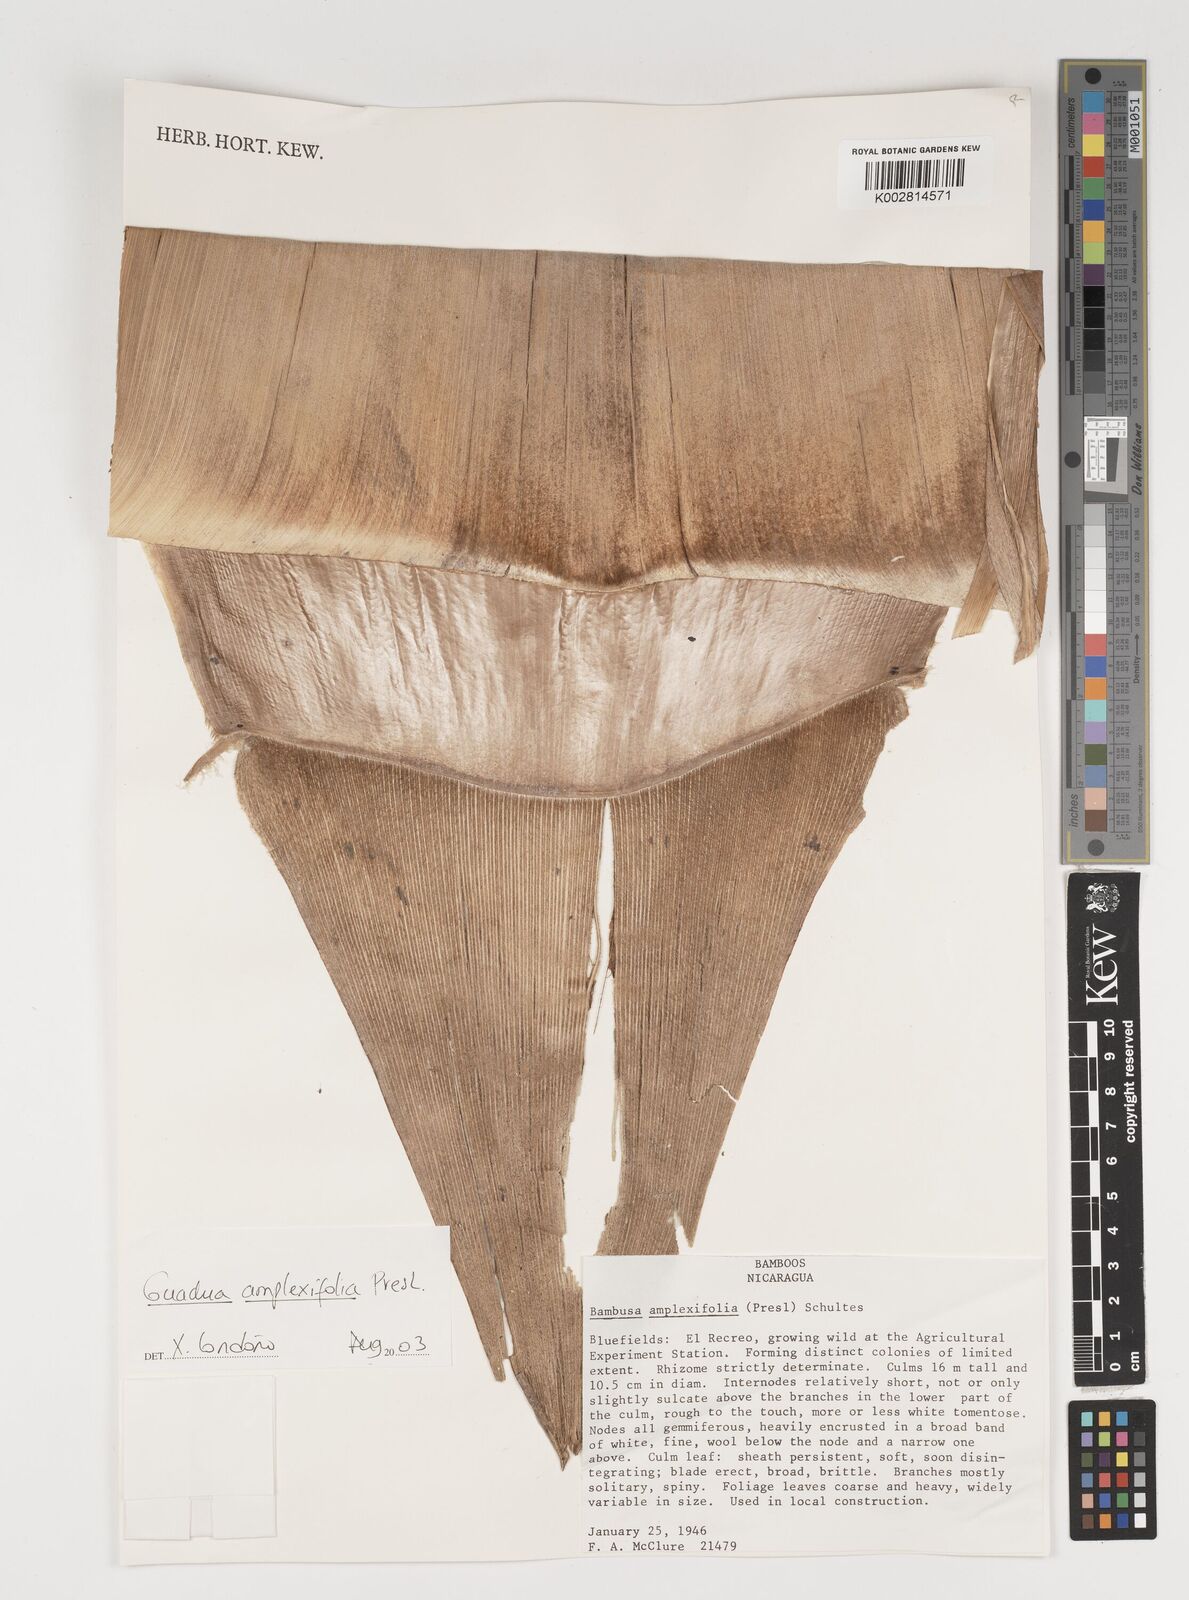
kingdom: Plantae
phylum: Tracheophyta
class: Liliopsida
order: Poales
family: Poaceae
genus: Guadua
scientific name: Guadua amplexifolia
